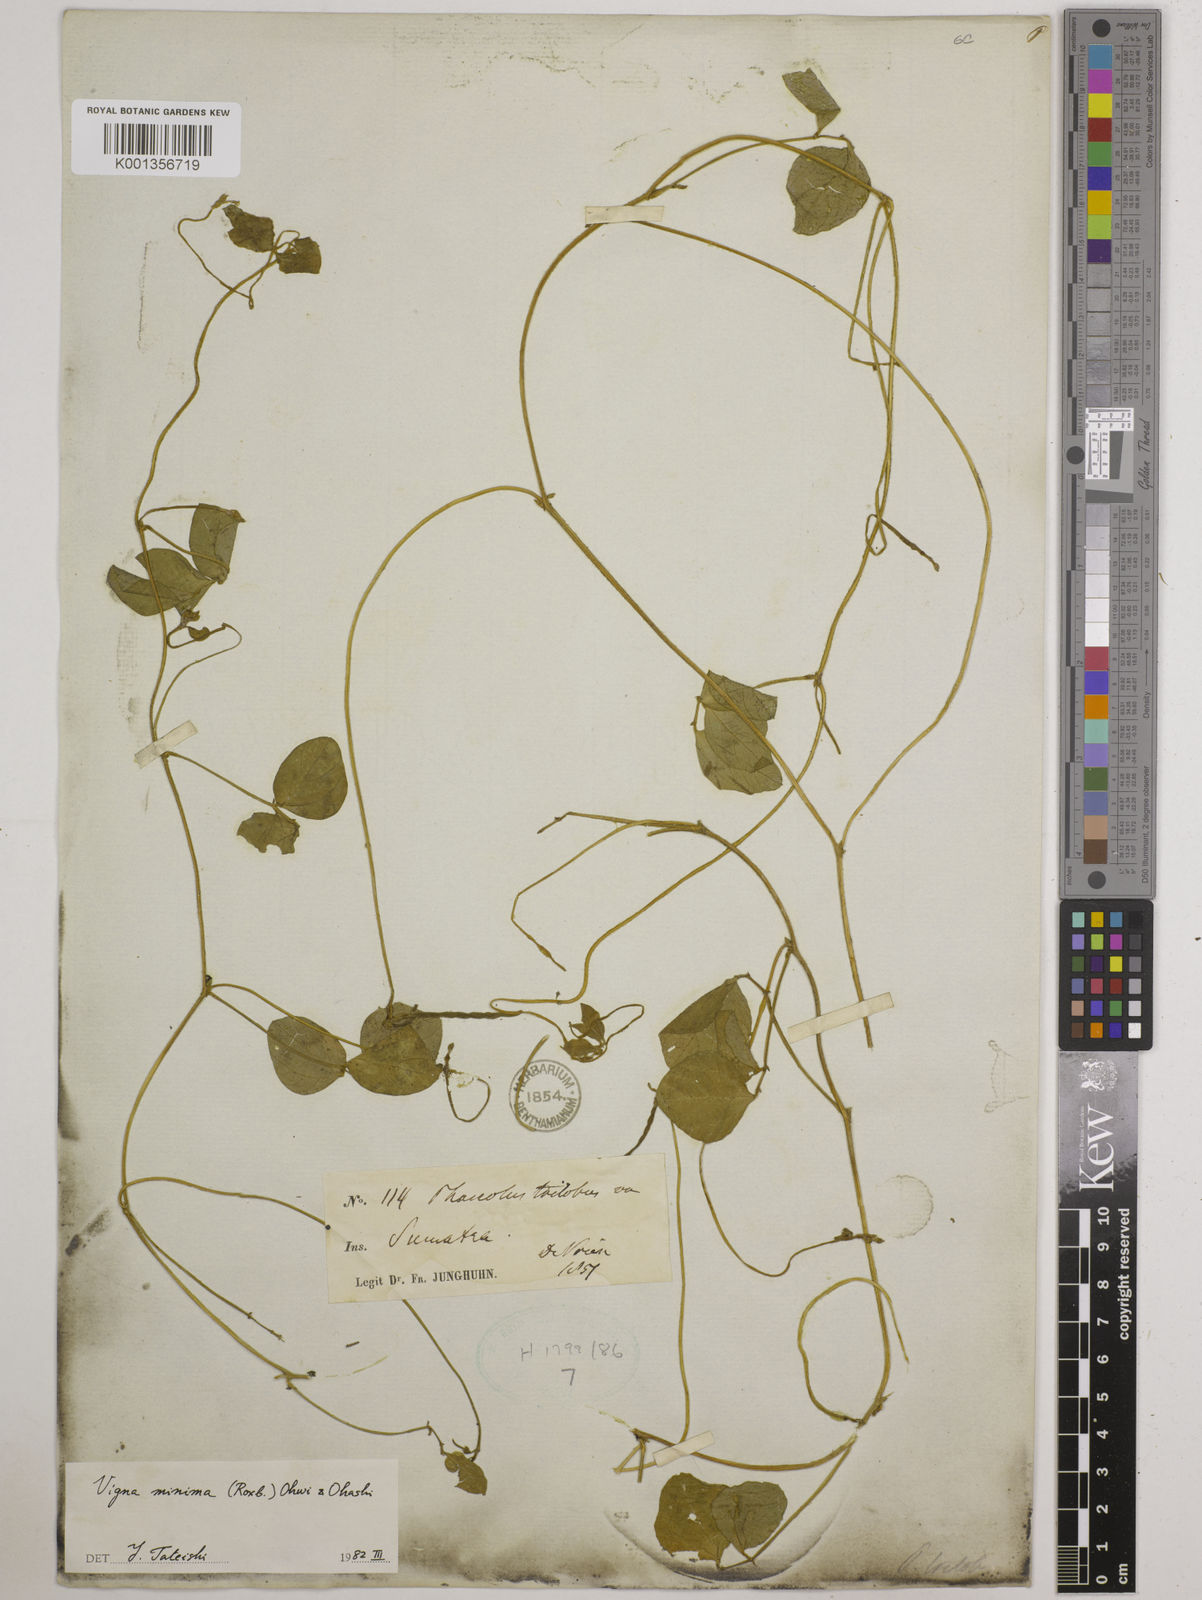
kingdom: Plantae
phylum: Tracheophyta
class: Magnoliopsida
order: Fabales
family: Fabaceae
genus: Vigna
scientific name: Vigna
